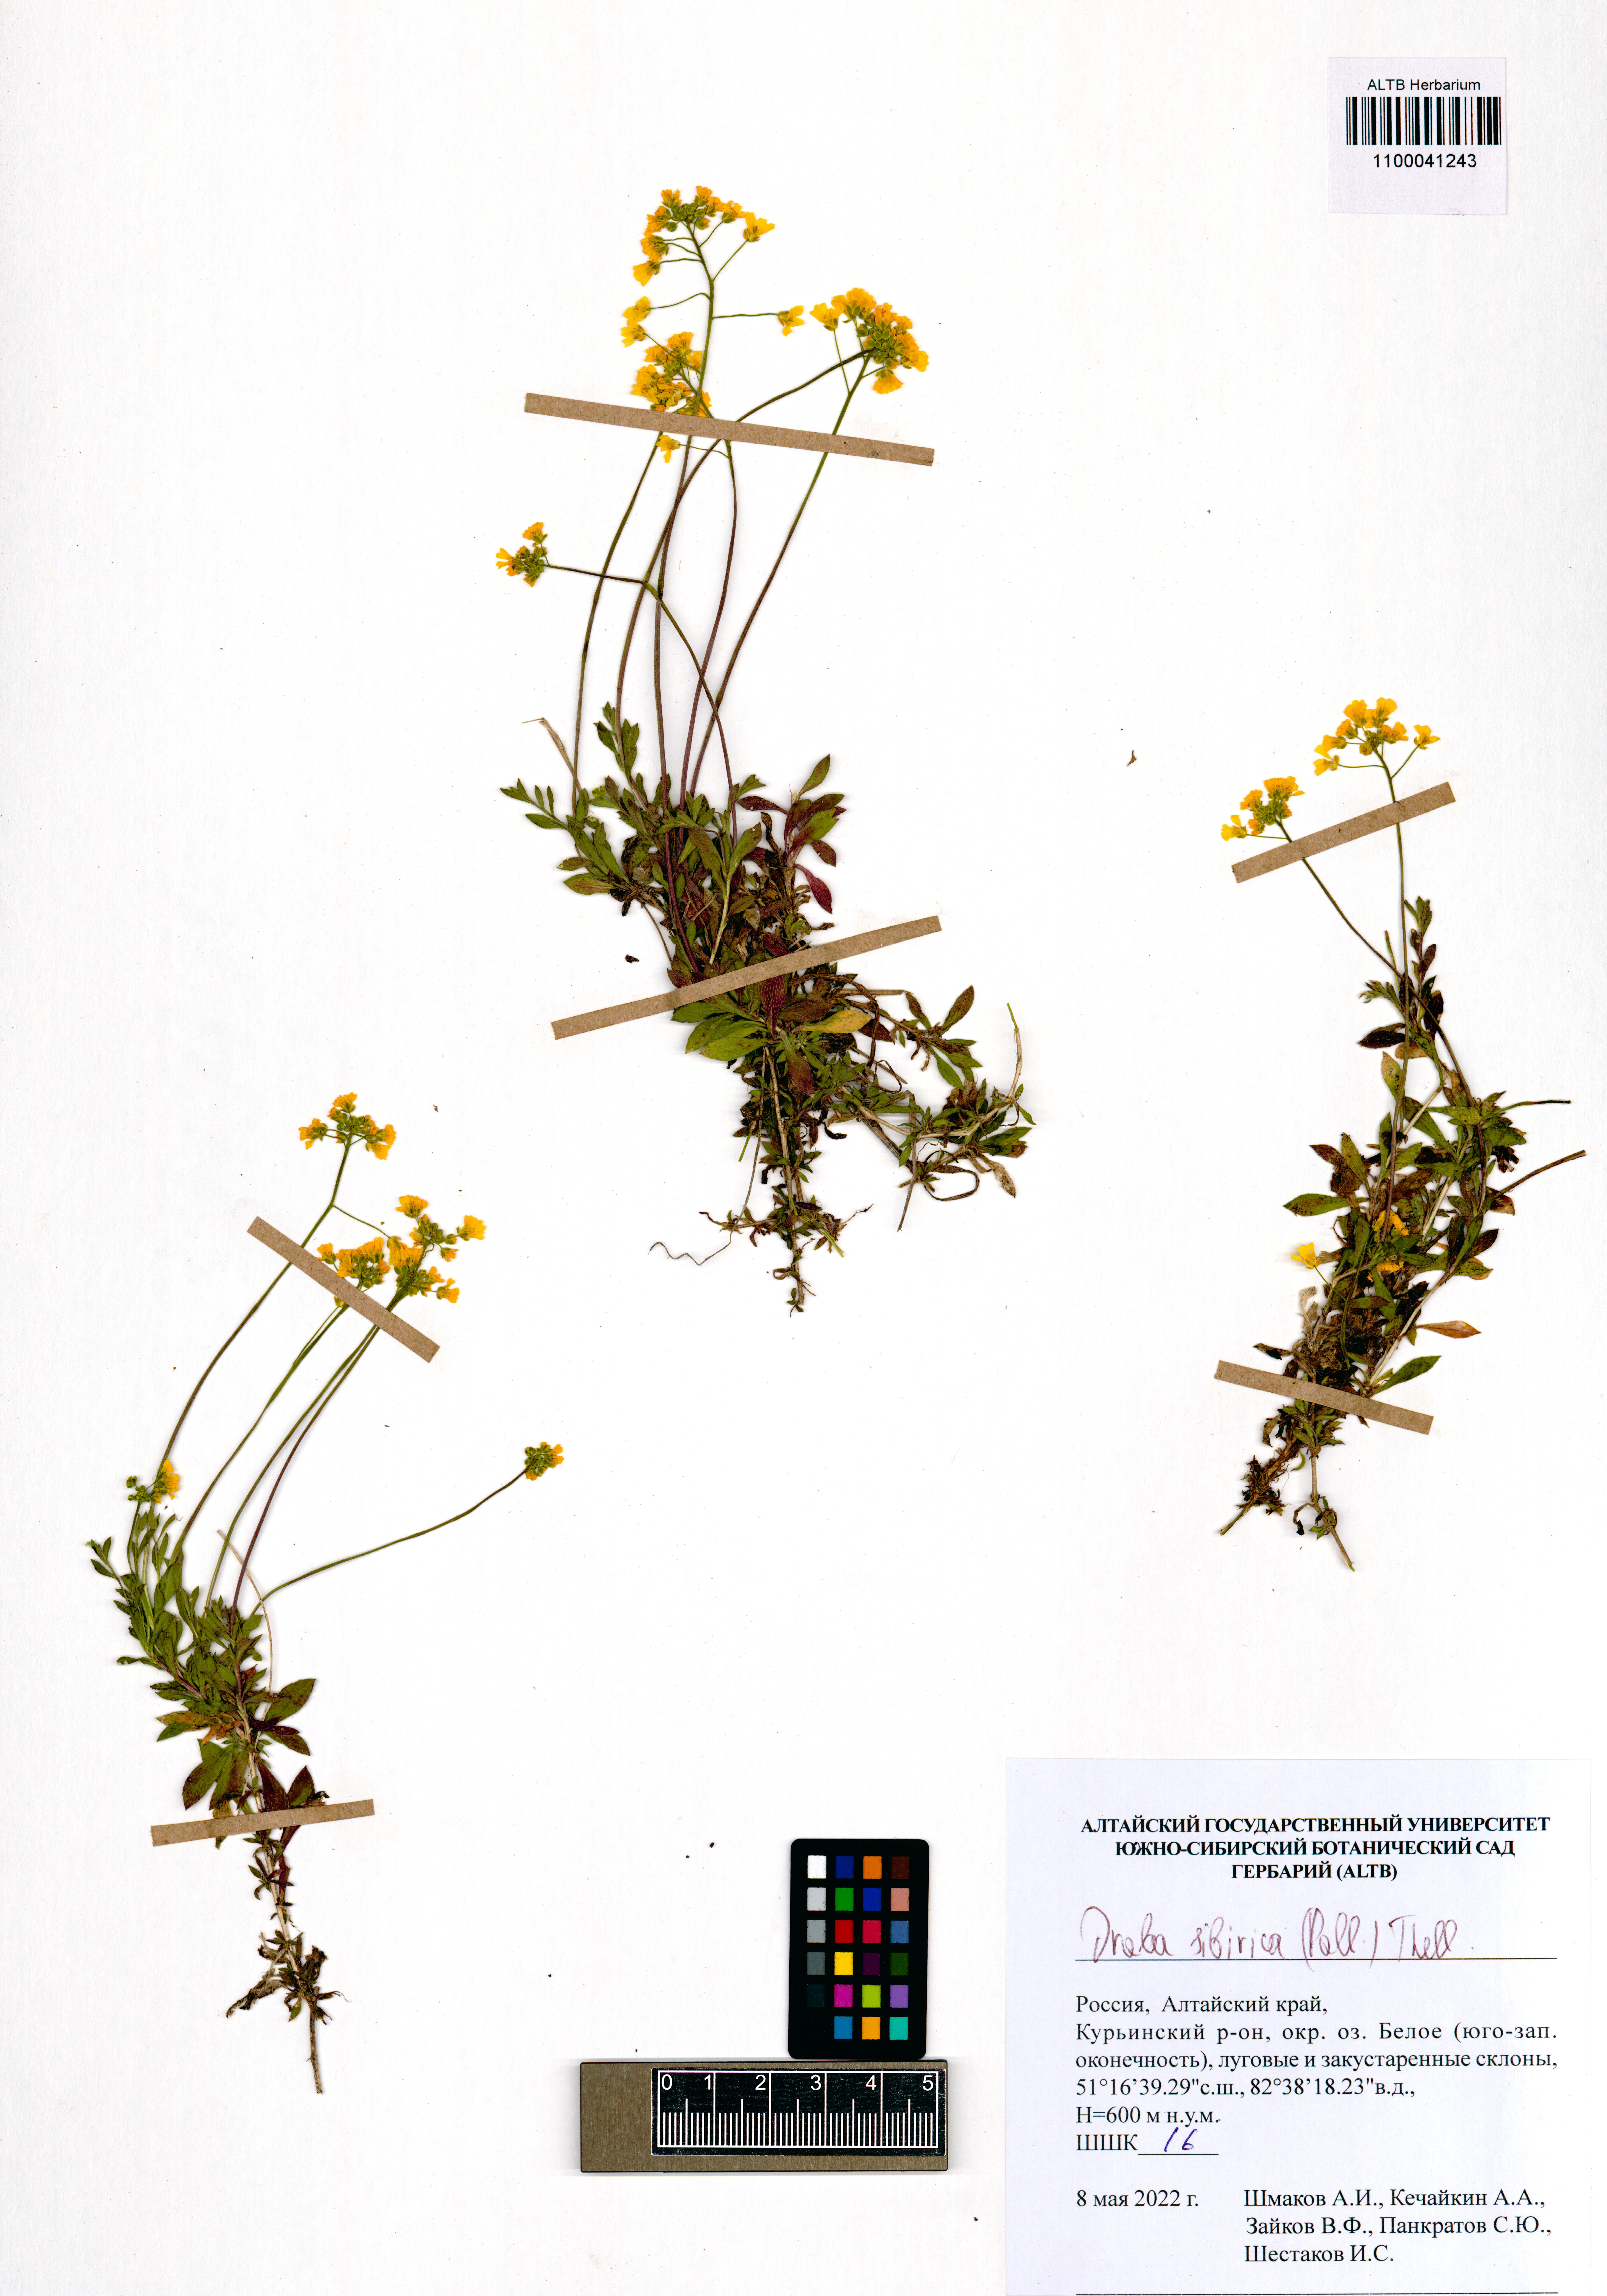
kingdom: Plantae
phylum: Tracheophyta
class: Magnoliopsida
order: Brassicales
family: Brassicaceae
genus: Draba
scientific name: Draba sibirica
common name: Siberian draba
